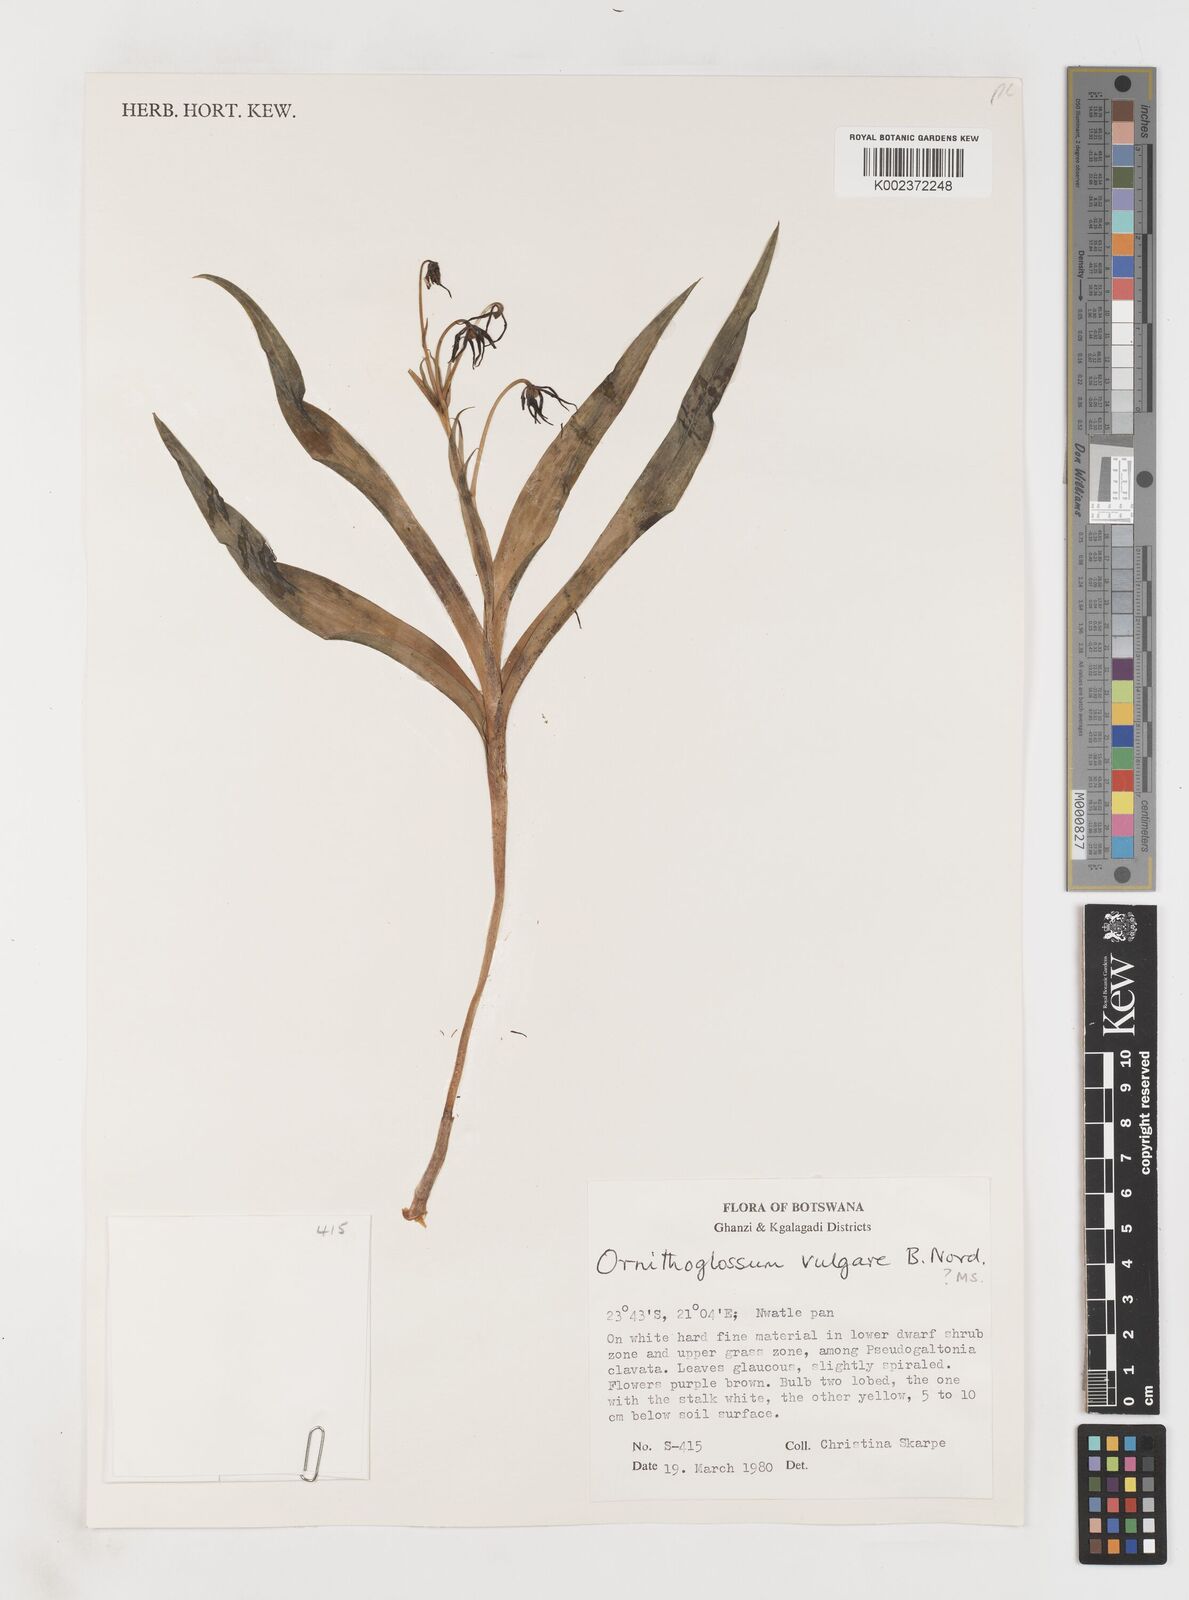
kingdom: Plantae
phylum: Tracheophyta
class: Liliopsida
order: Liliales
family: Colchicaceae
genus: Ornithoglossum
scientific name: Ornithoglossum vulgare
